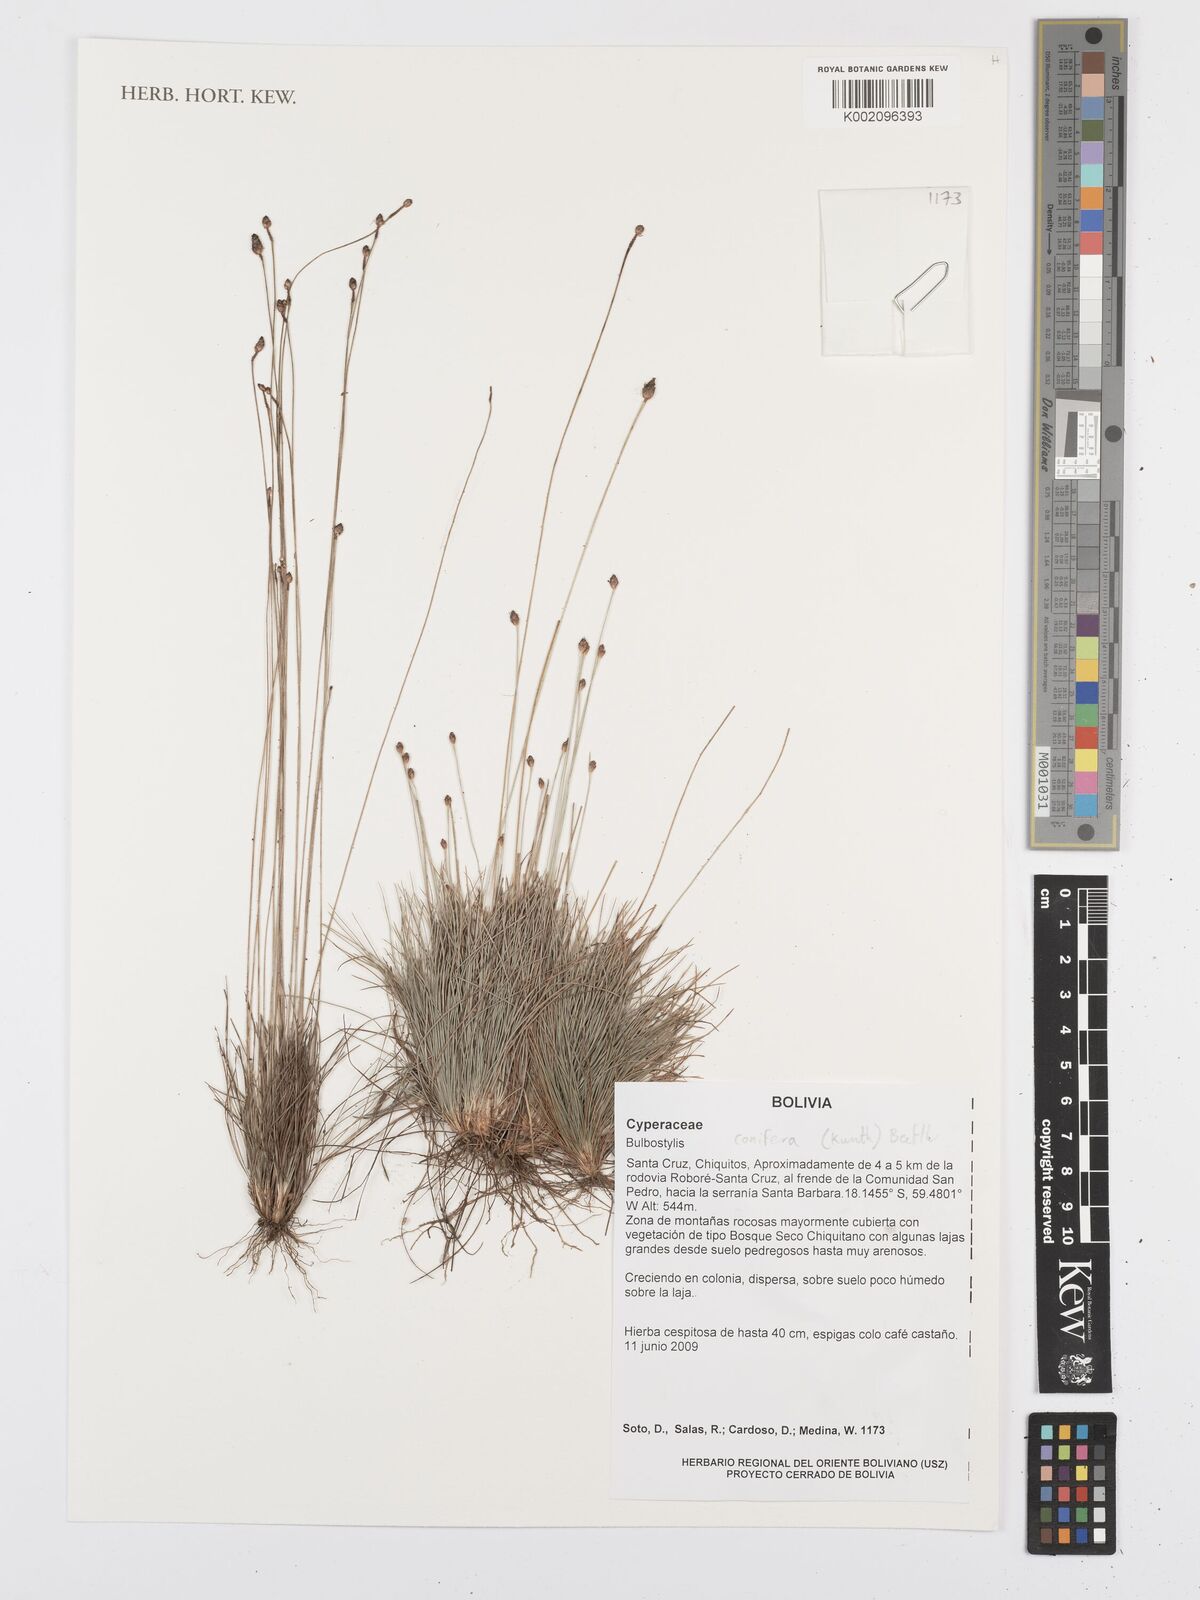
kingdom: Plantae
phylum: Tracheophyta
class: Liliopsida
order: Poales
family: Cyperaceae
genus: Bulbostylis
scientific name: Bulbostylis conifera
